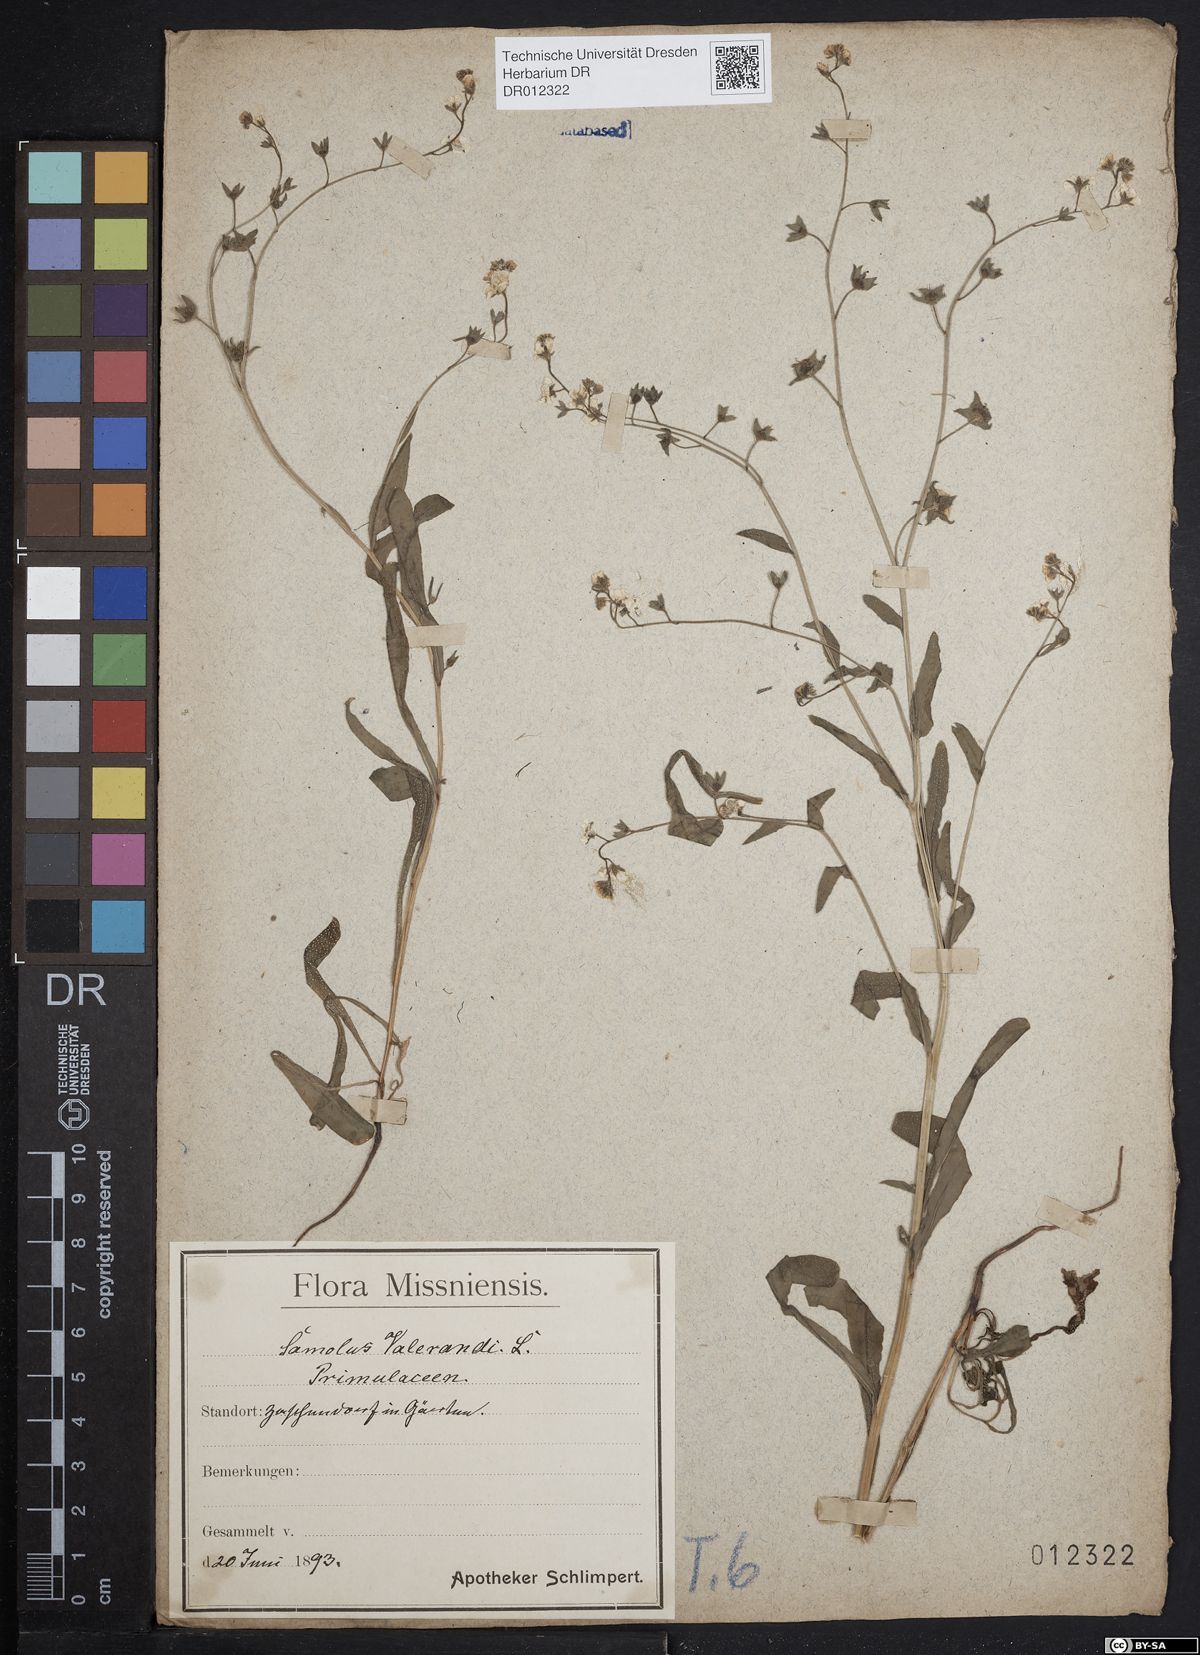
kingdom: Plantae
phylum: Tracheophyta
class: Magnoliopsida
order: Ericales
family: Primulaceae
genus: Samolus
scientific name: Samolus valerandi
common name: Brookweed
